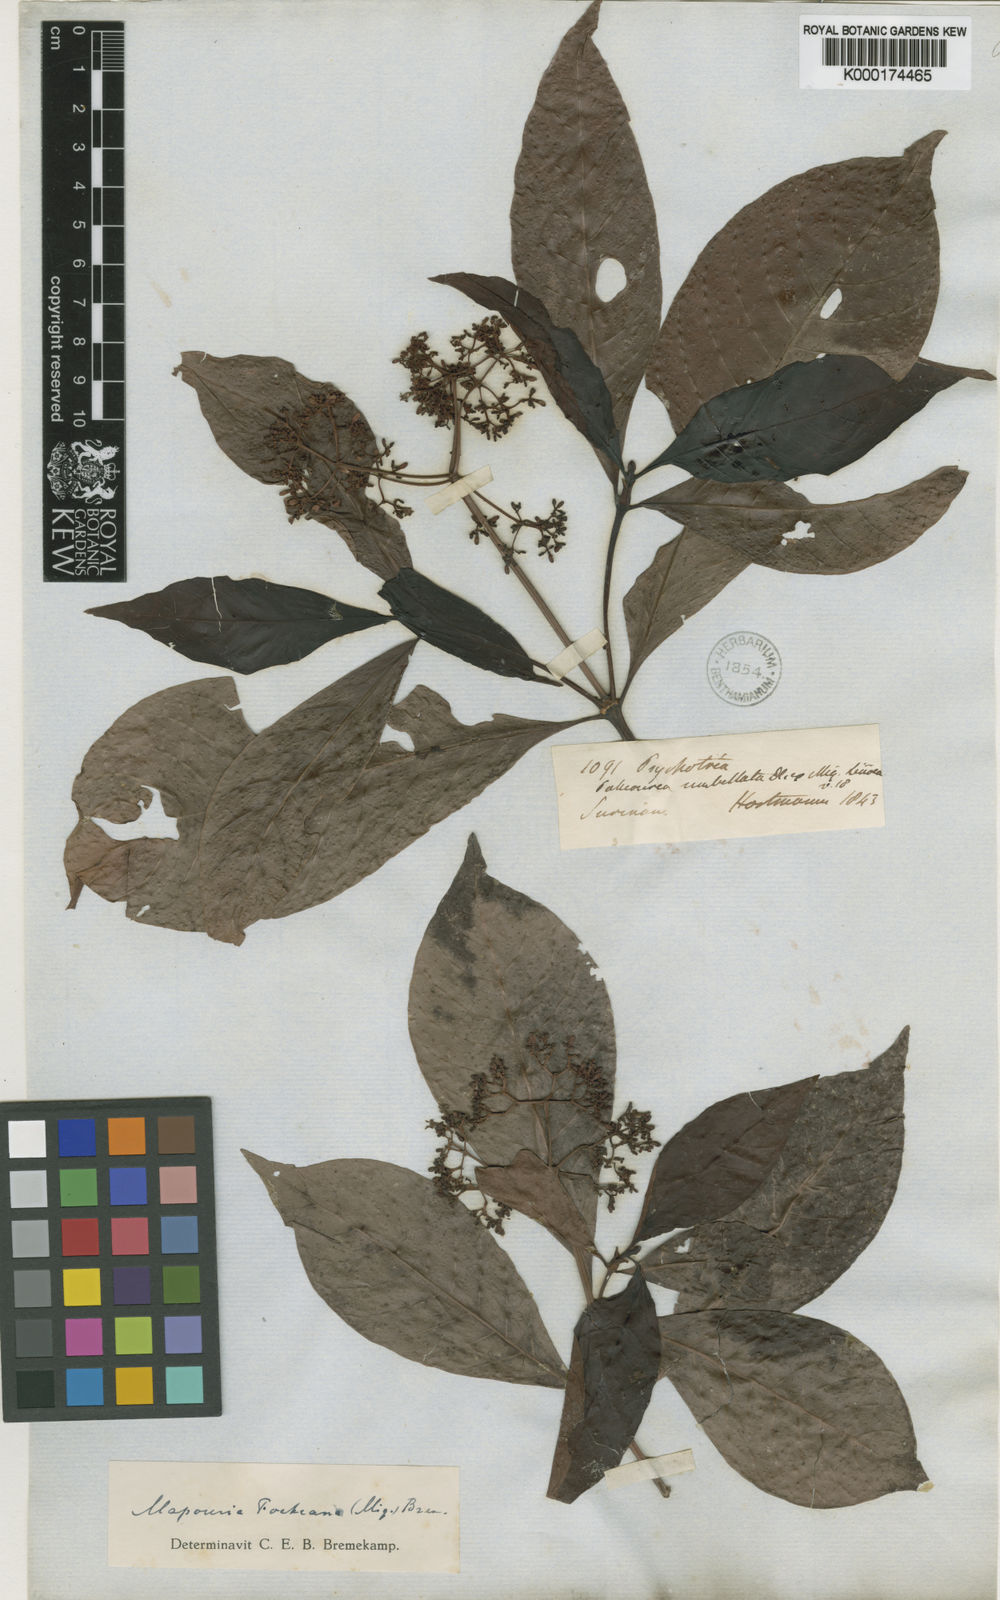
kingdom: Plantae
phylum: Tracheophyta
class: Magnoliopsida
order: Gentianales
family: Rubiaceae
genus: Psychotria
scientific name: Psychotria carthagenensis
